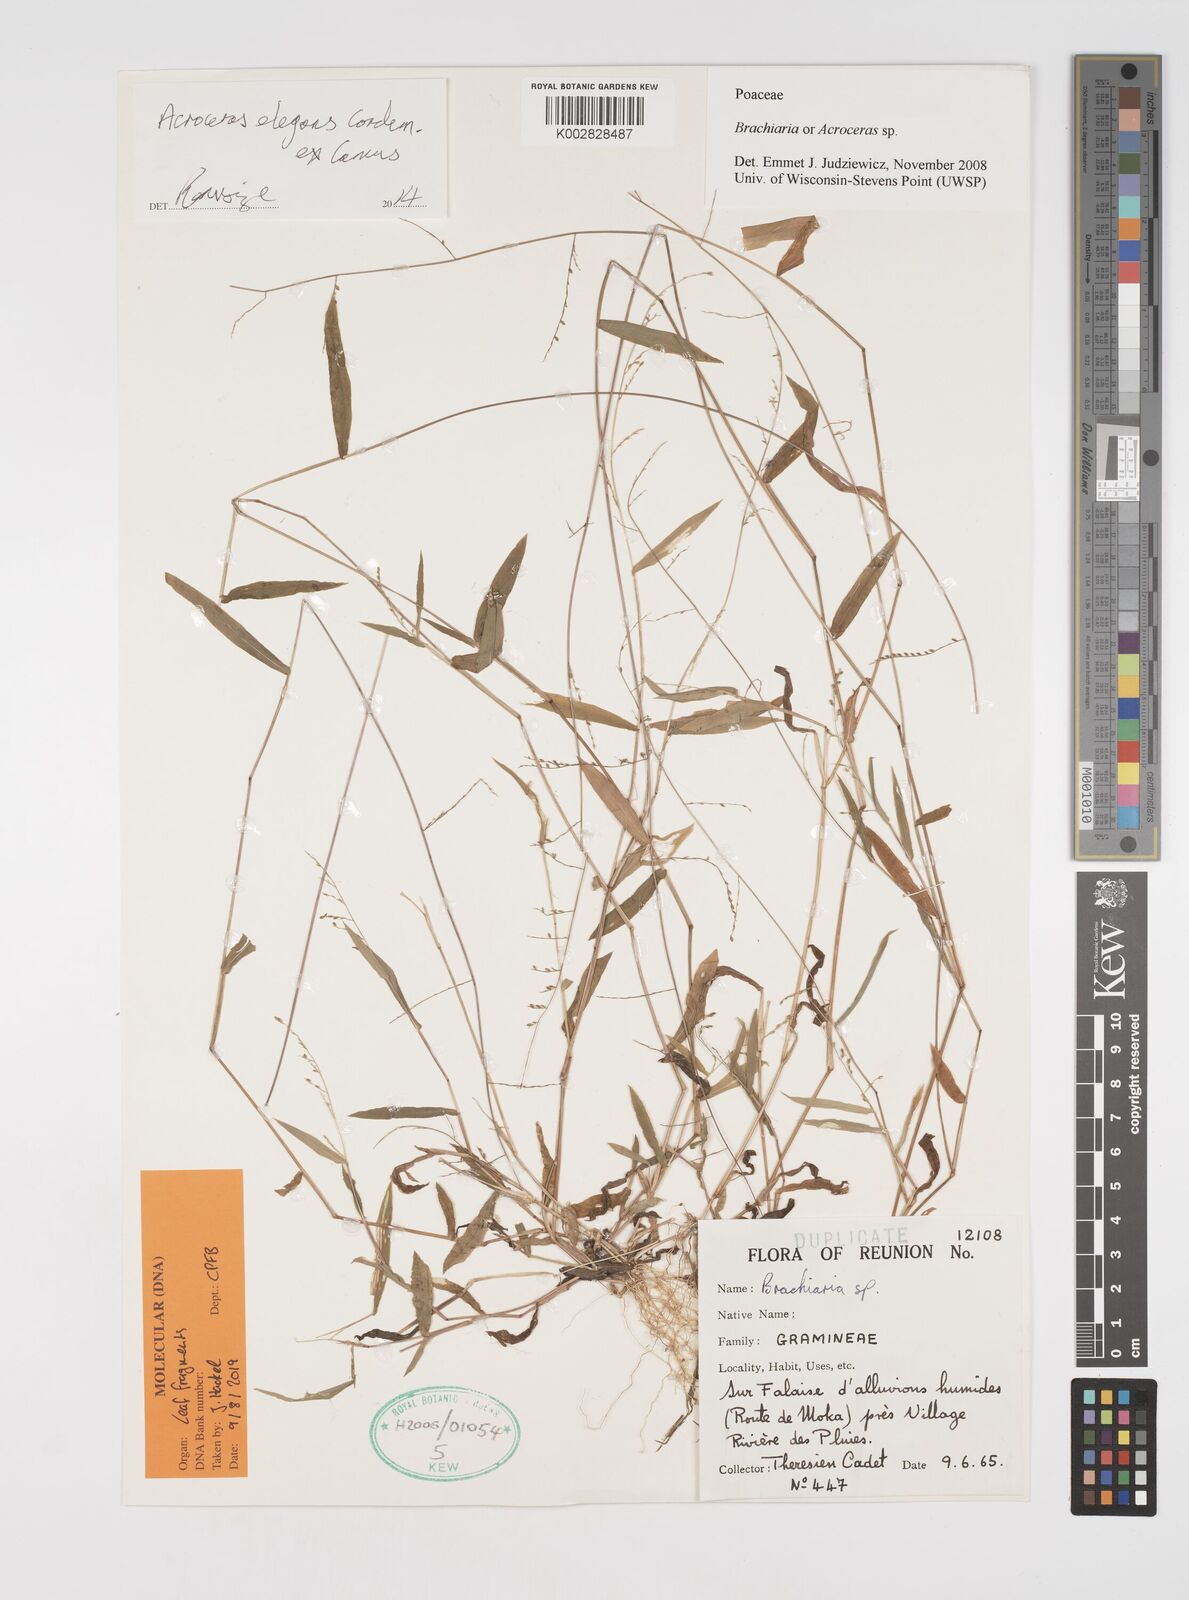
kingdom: Plantae
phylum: Tracheophyta
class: Liliopsida
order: Poales
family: Poaceae
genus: Acroceras
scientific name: Acroceras elegans
